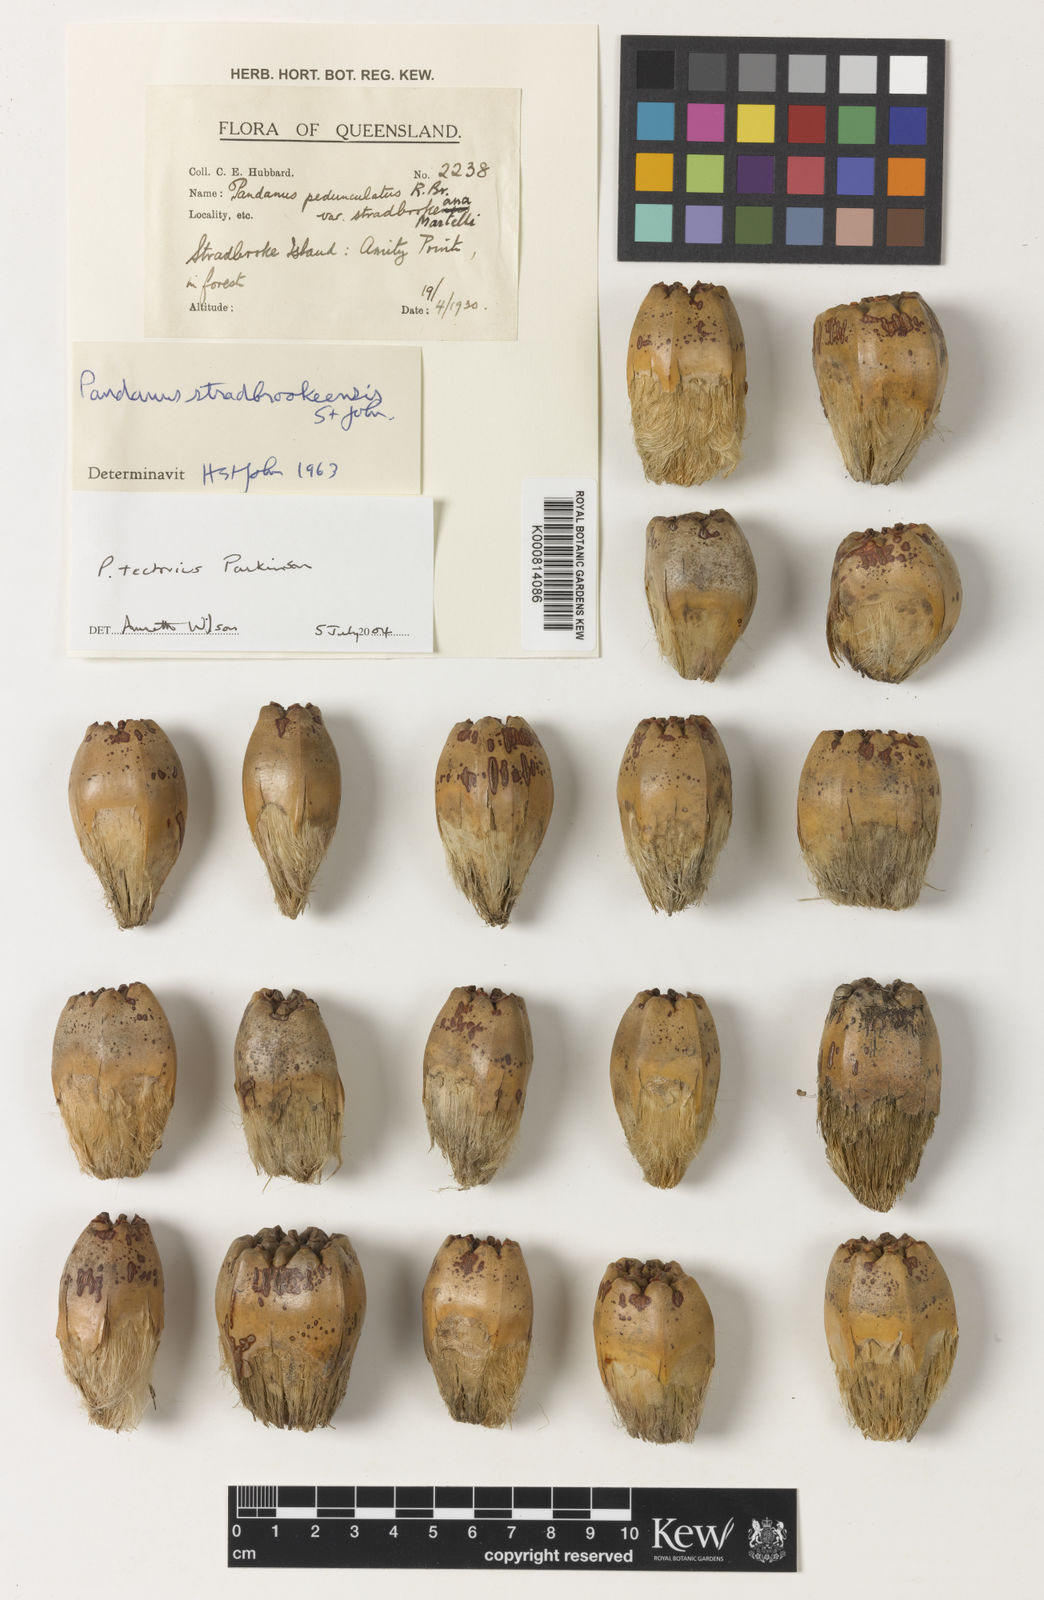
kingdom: Plantae
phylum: Tracheophyta
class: Liliopsida
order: Pandanales
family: Pandanaceae
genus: Pandanus
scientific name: Pandanus tectorius
